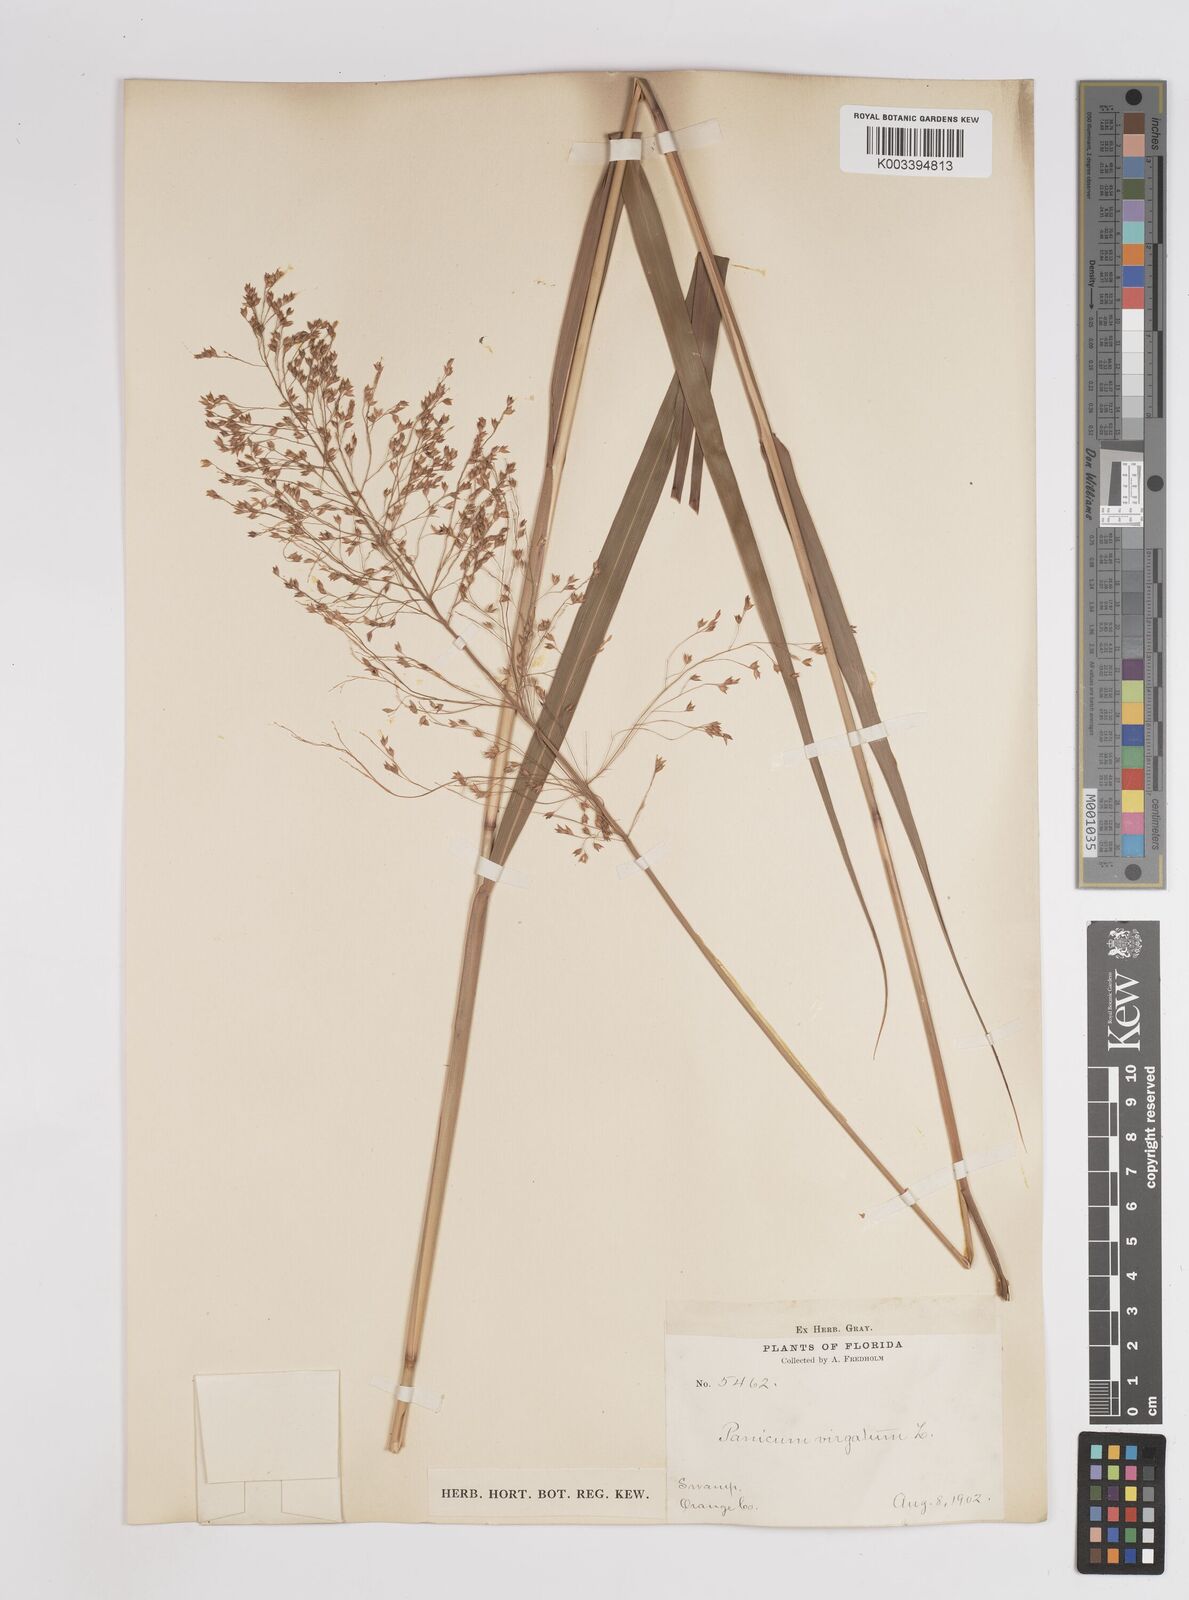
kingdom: Plantae
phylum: Tracheophyta
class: Liliopsida
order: Poales
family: Poaceae
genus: Panicum
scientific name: Panicum virgatum
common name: Switchgrass
